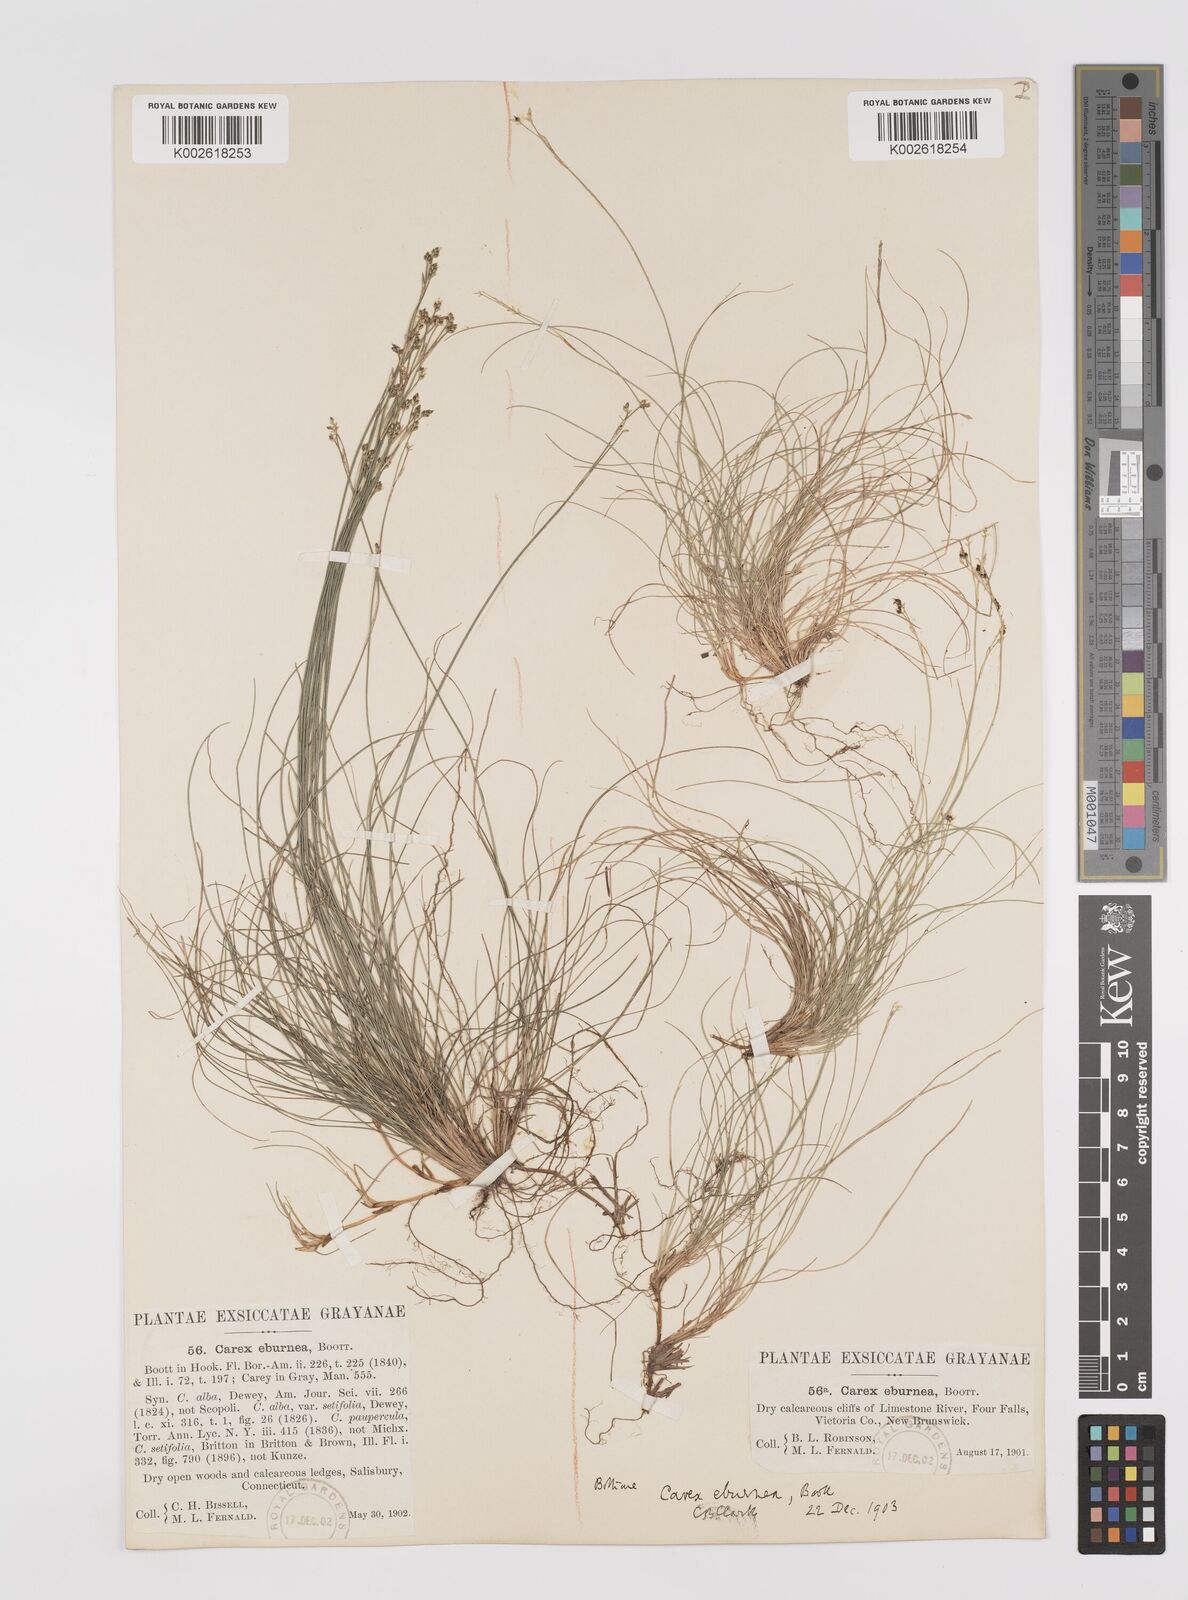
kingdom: Plantae
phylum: Tracheophyta
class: Liliopsida
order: Poales
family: Cyperaceae
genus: Carex
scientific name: Carex eburnea
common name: Bristle-leaved sedge
